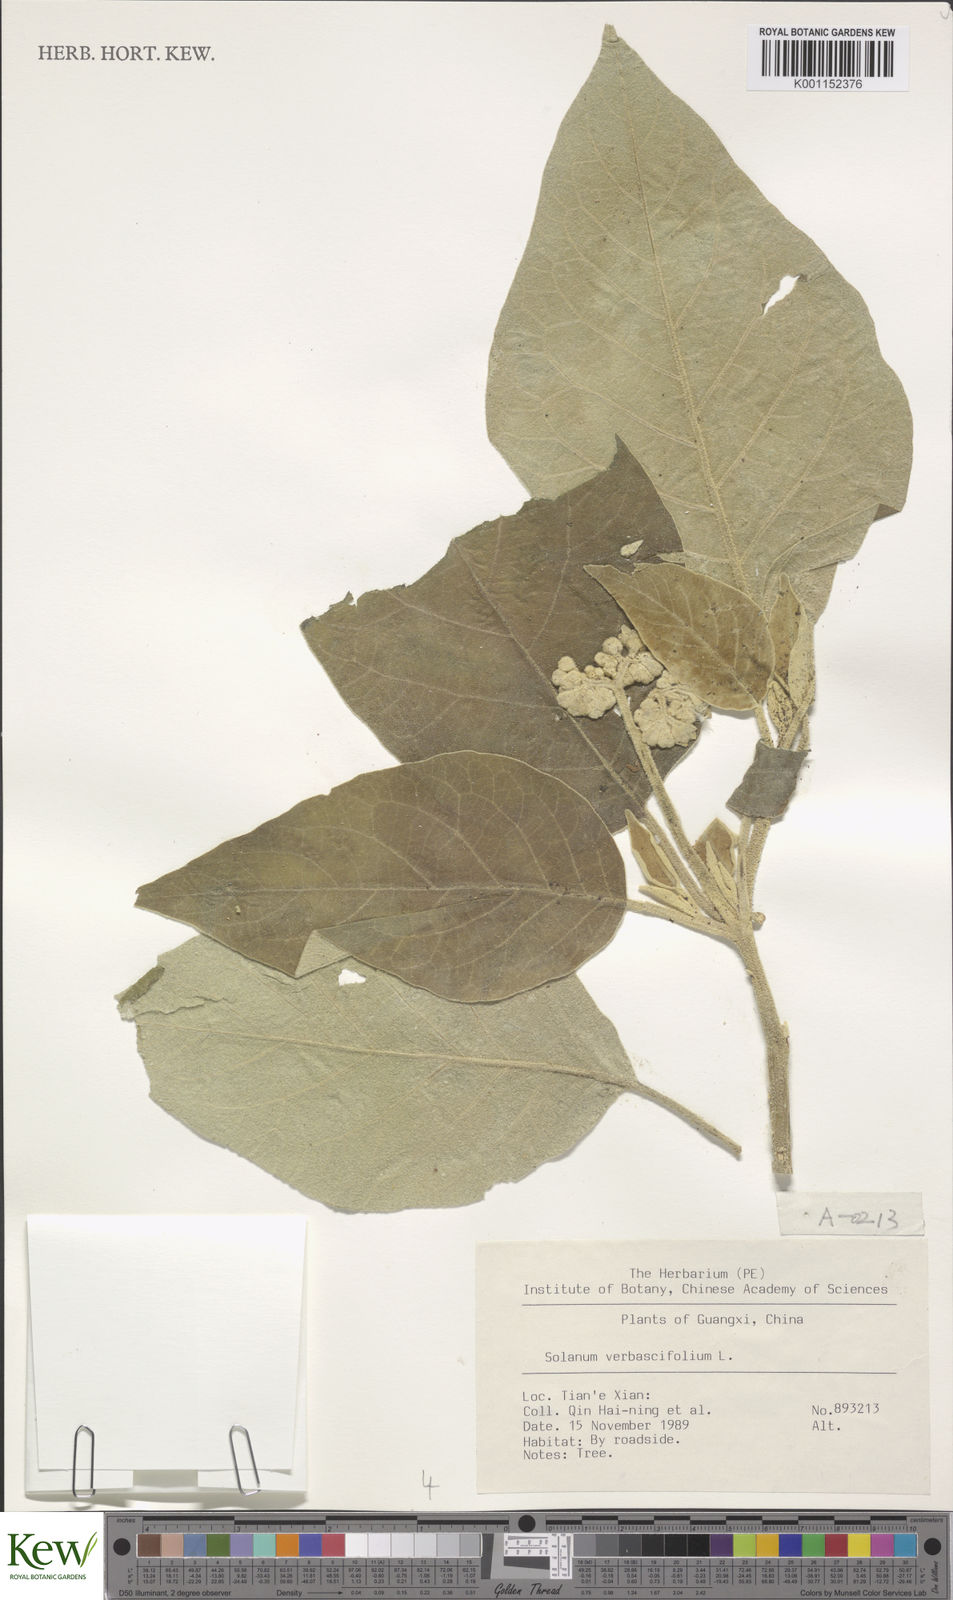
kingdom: Plantae
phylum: Tracheophyta
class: Magnoliopsida
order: Solanales
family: Solanaceae
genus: Solanum
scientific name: Solanum donianum
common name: Mullein nightshade
